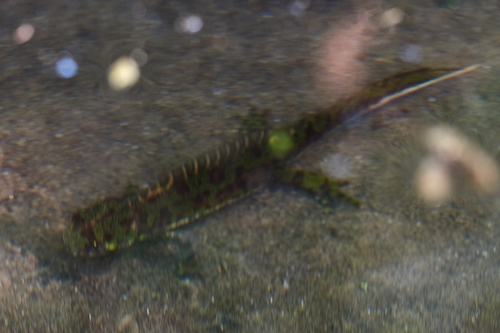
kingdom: Animalia
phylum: Chordata
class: Amphibia
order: Caudata
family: Salamandridae
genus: Triturus
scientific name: Triturus marmoratus
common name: Marbled newt
